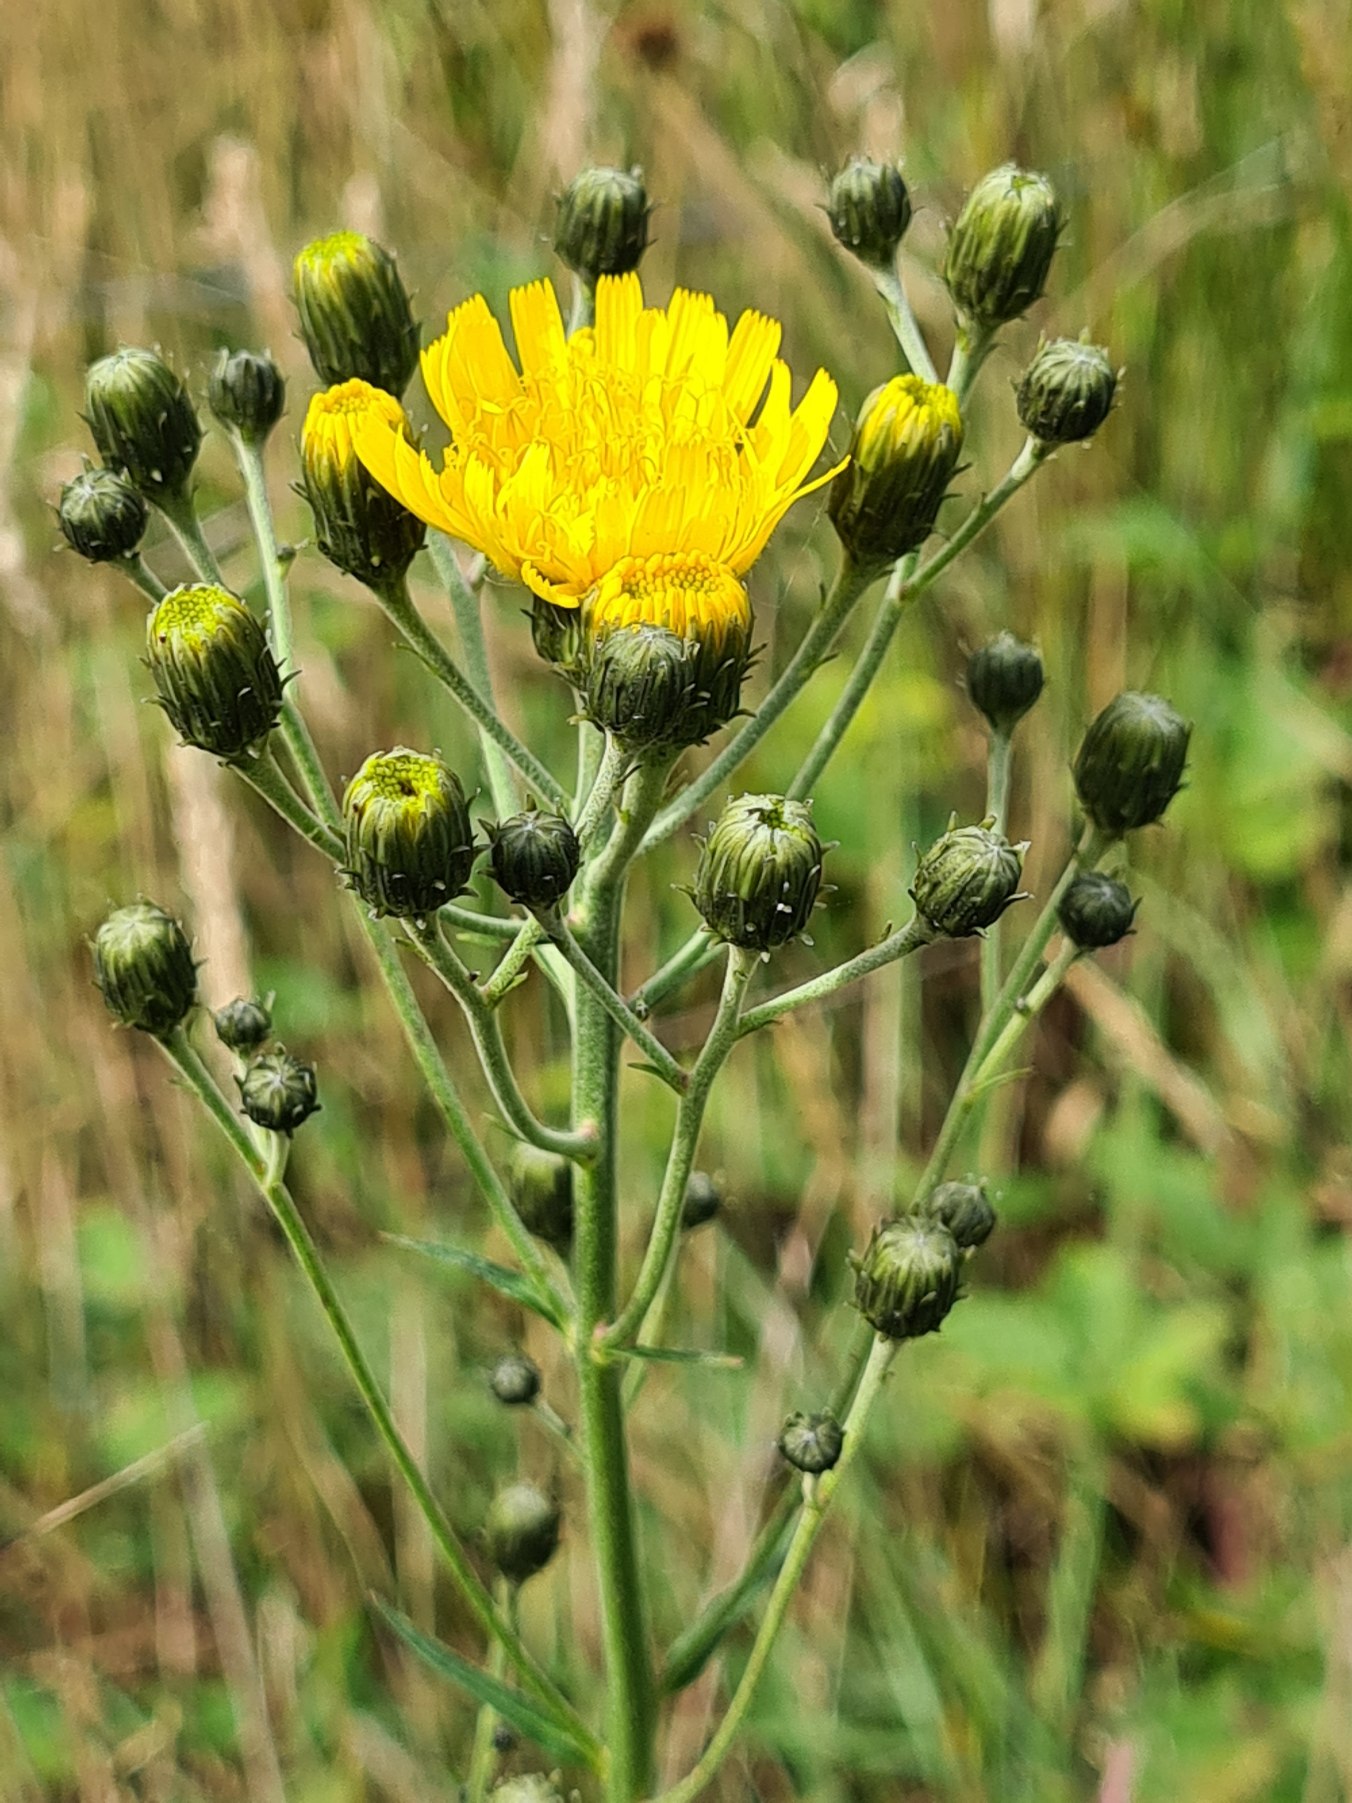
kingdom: Plantae
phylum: Tracheophyta
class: Magnoliopsida
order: Asterales
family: Asteraceae
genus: Hieracium
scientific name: Hieracium umbellatum
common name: Smalbladet høgeurt
